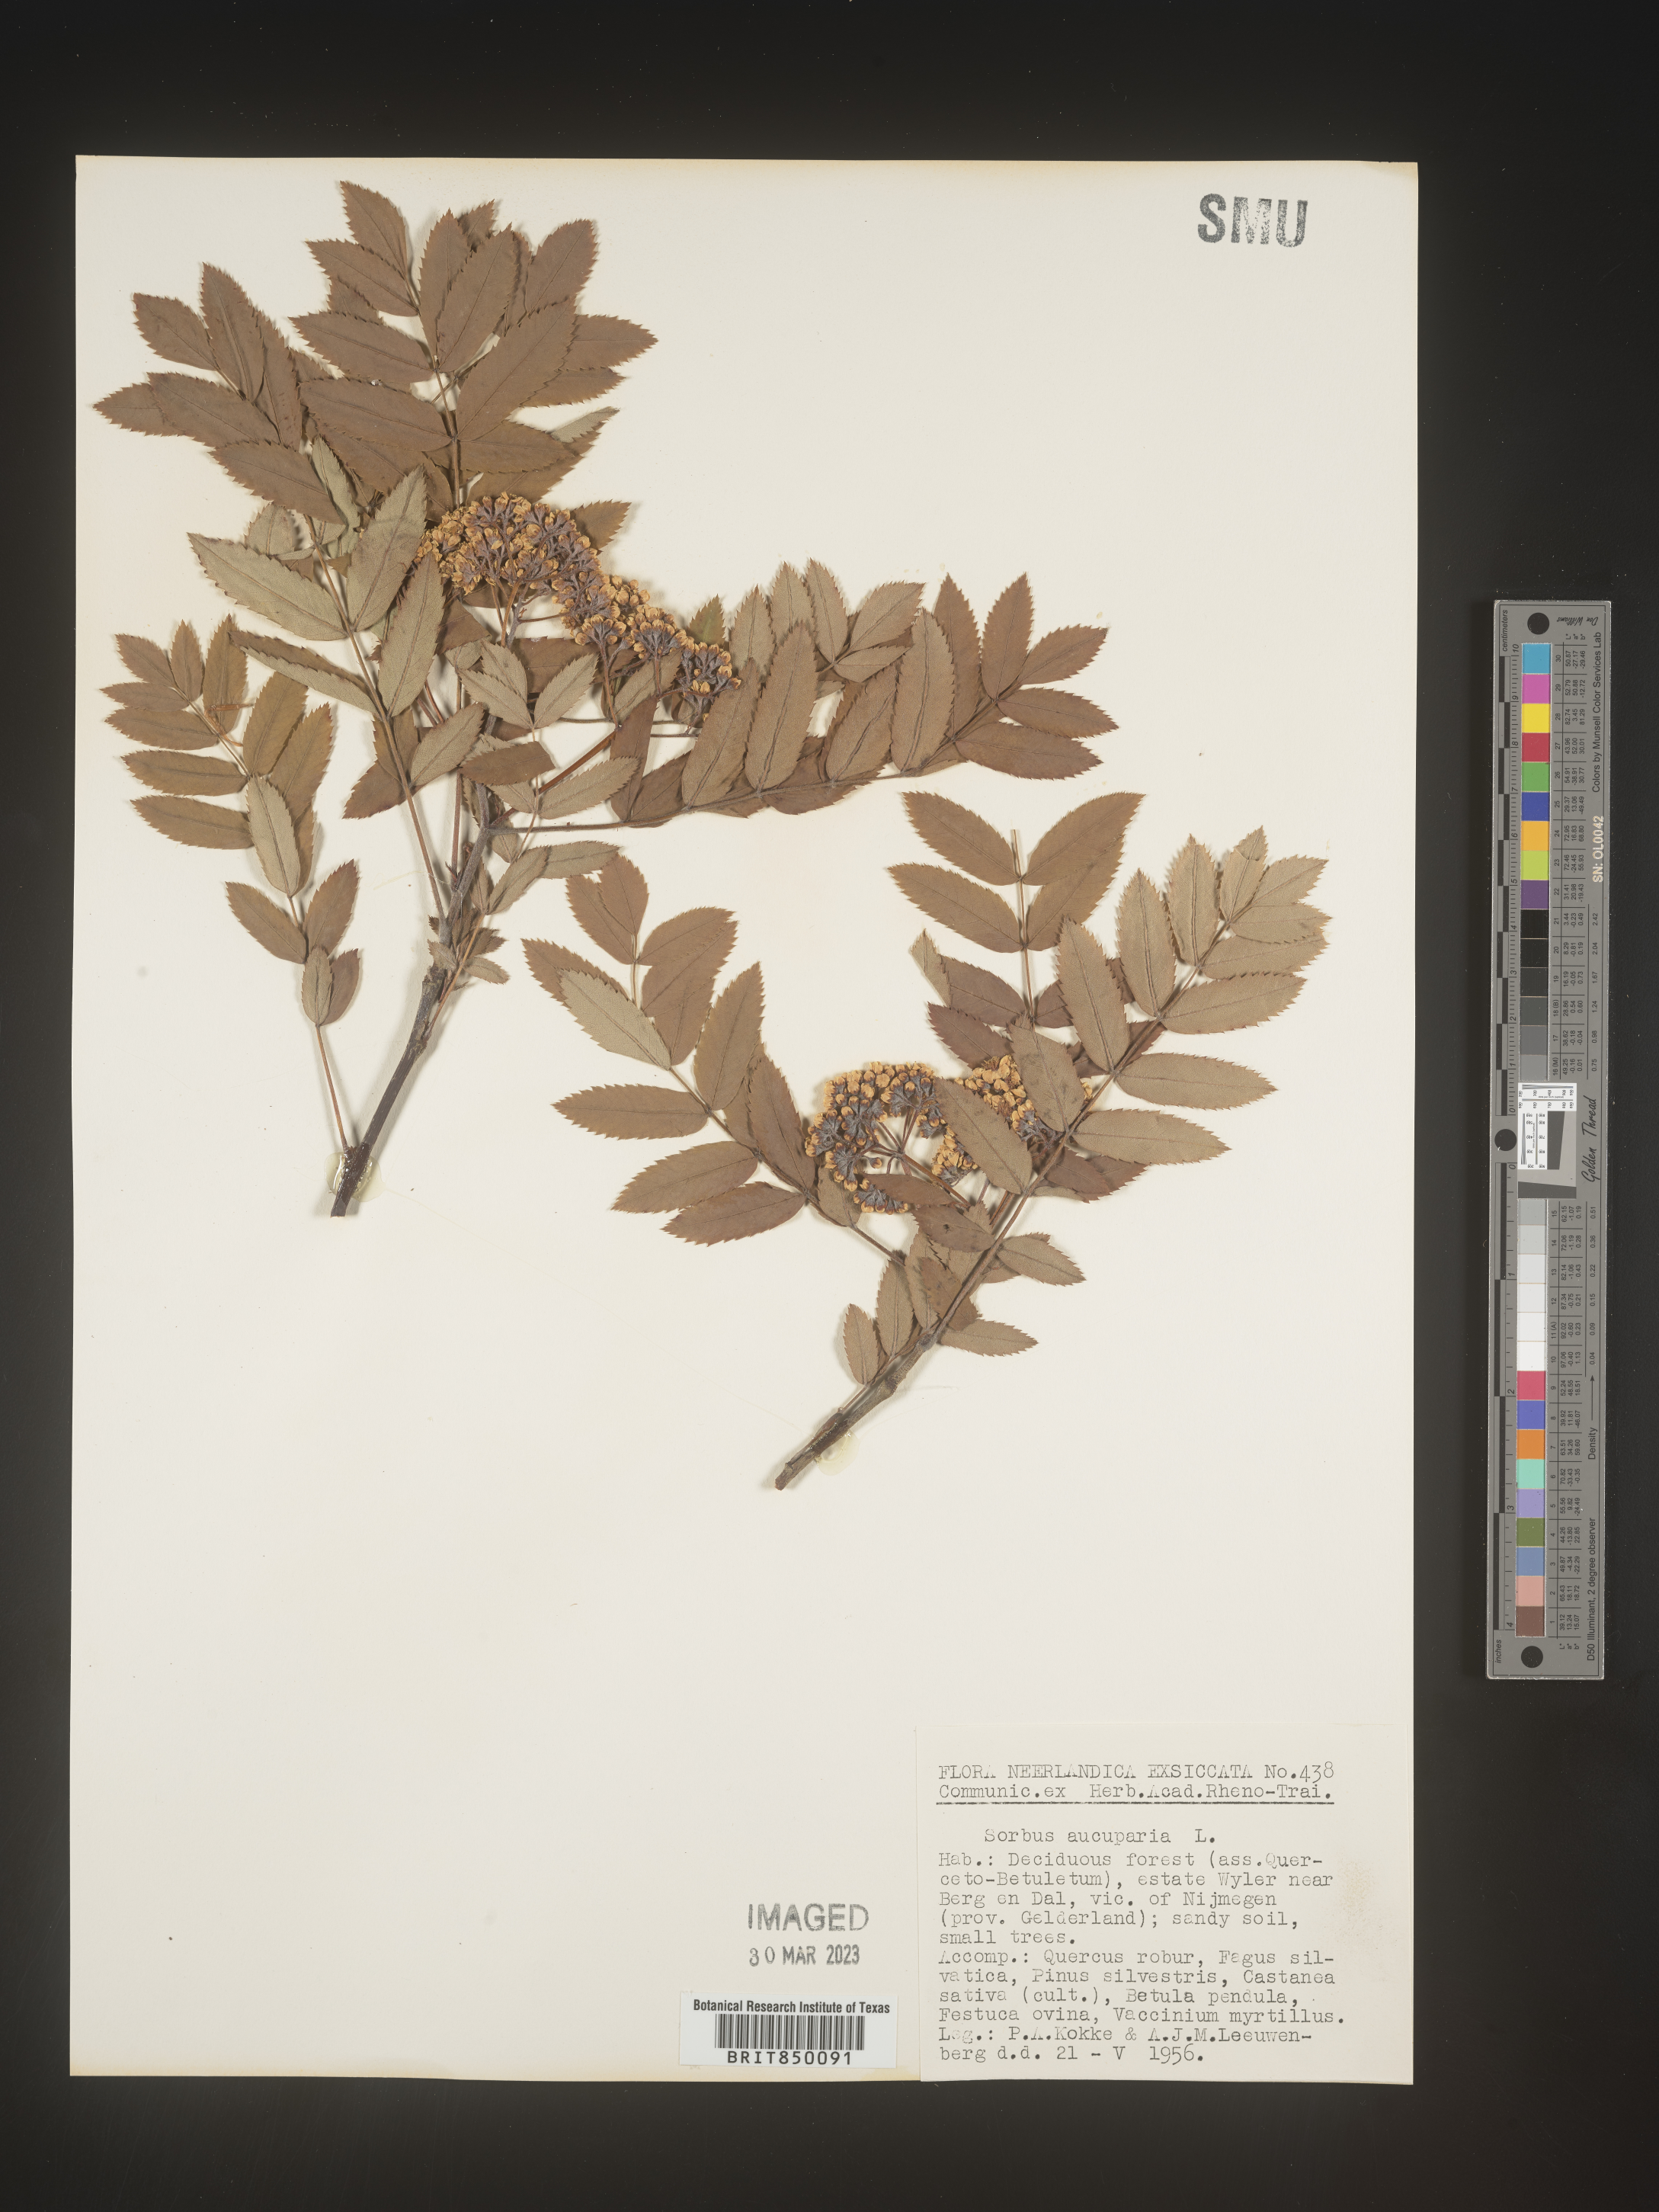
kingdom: Plantae
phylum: Tracheophyta
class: Magnoliopsida
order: Rosales
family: Rosaceae
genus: Sorbus
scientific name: Sorbus
